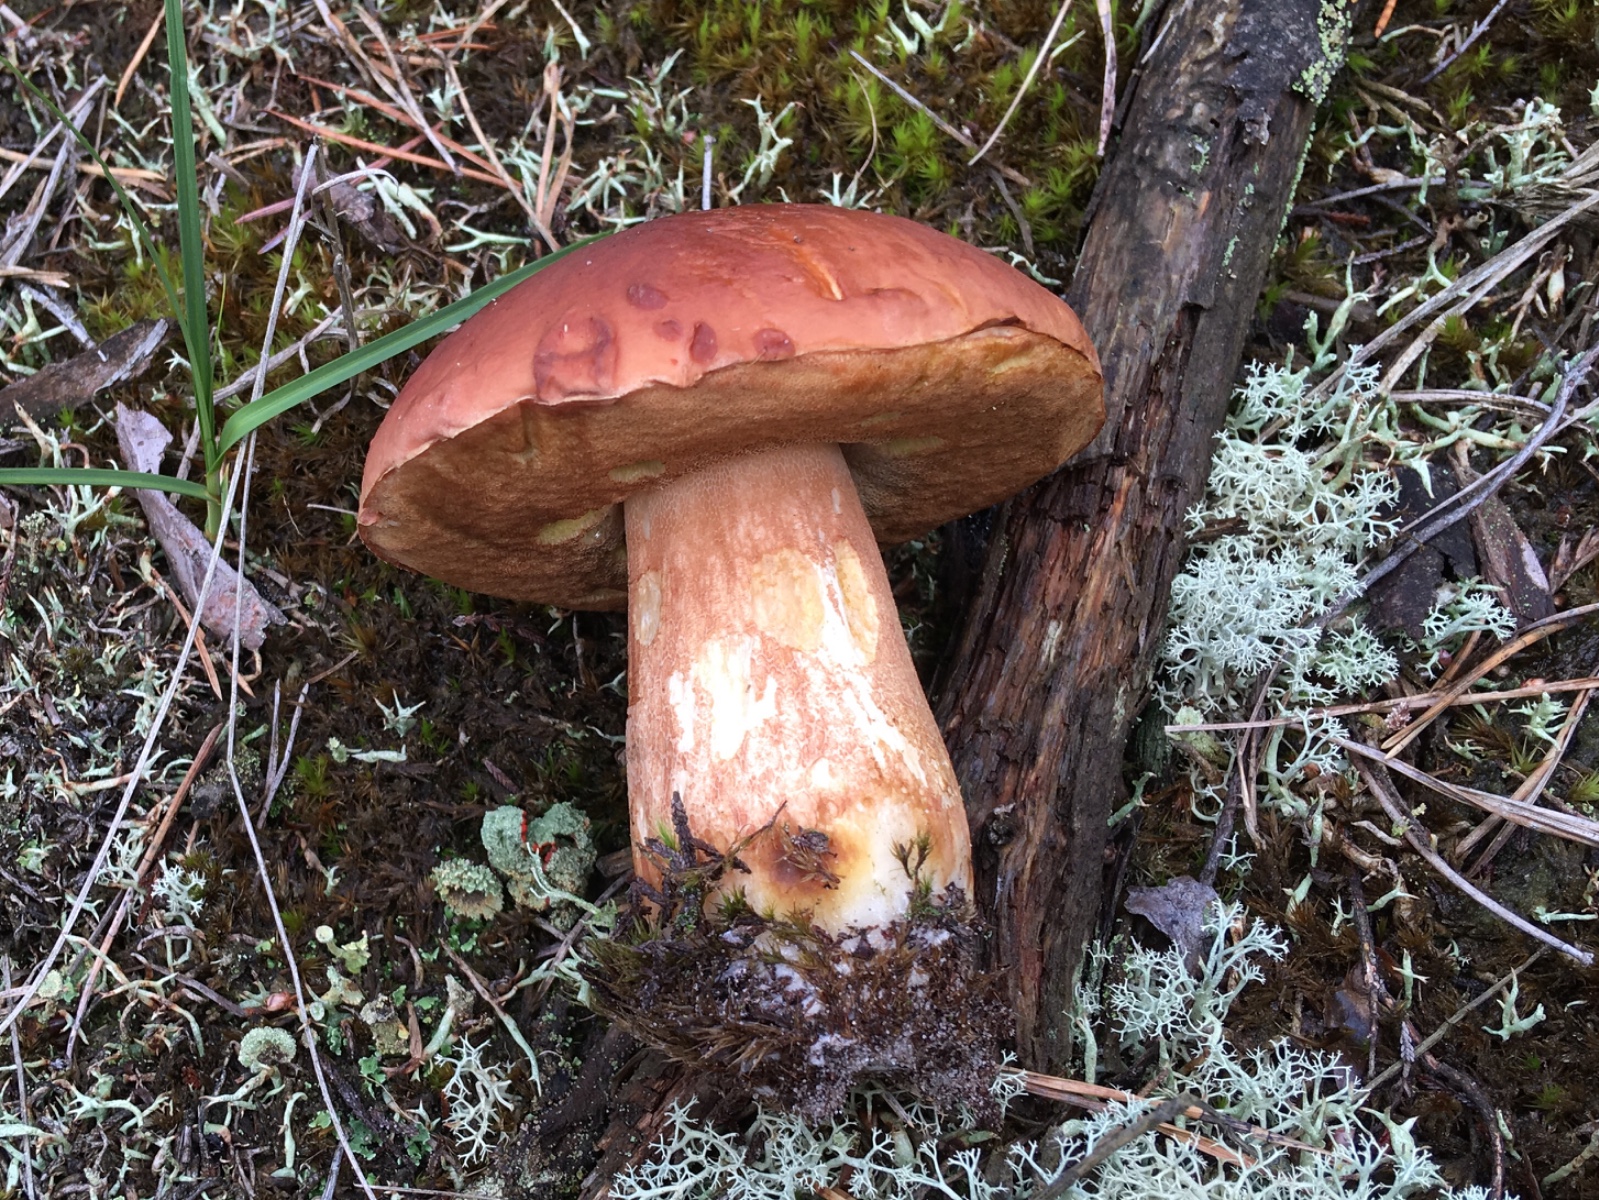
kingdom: Fungi
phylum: Basidiomycota
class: Agaricomycetes
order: Boletales
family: Boletaceae
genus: Boletus
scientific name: Boletus pinophilus
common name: rødbrun rørhat
